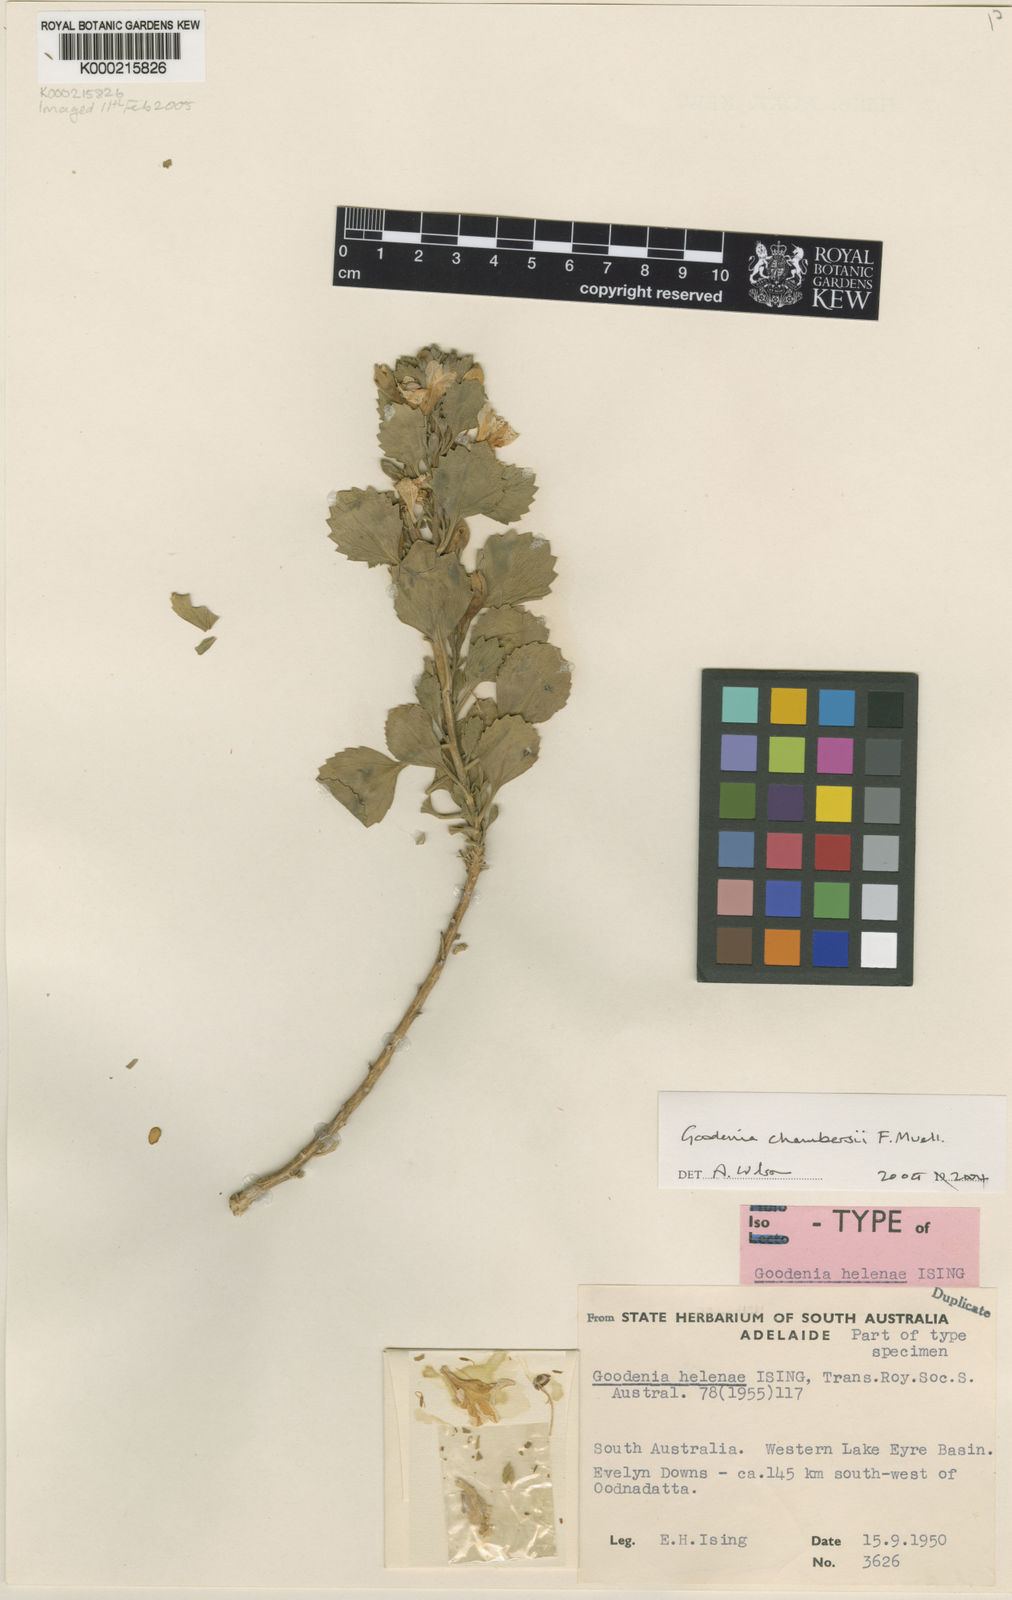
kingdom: Plantae
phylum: Tracheophyta
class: Magnoliopsida
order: Asterales
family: Goodeniaceae
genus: Goodenia
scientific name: Goodenia chambersii
